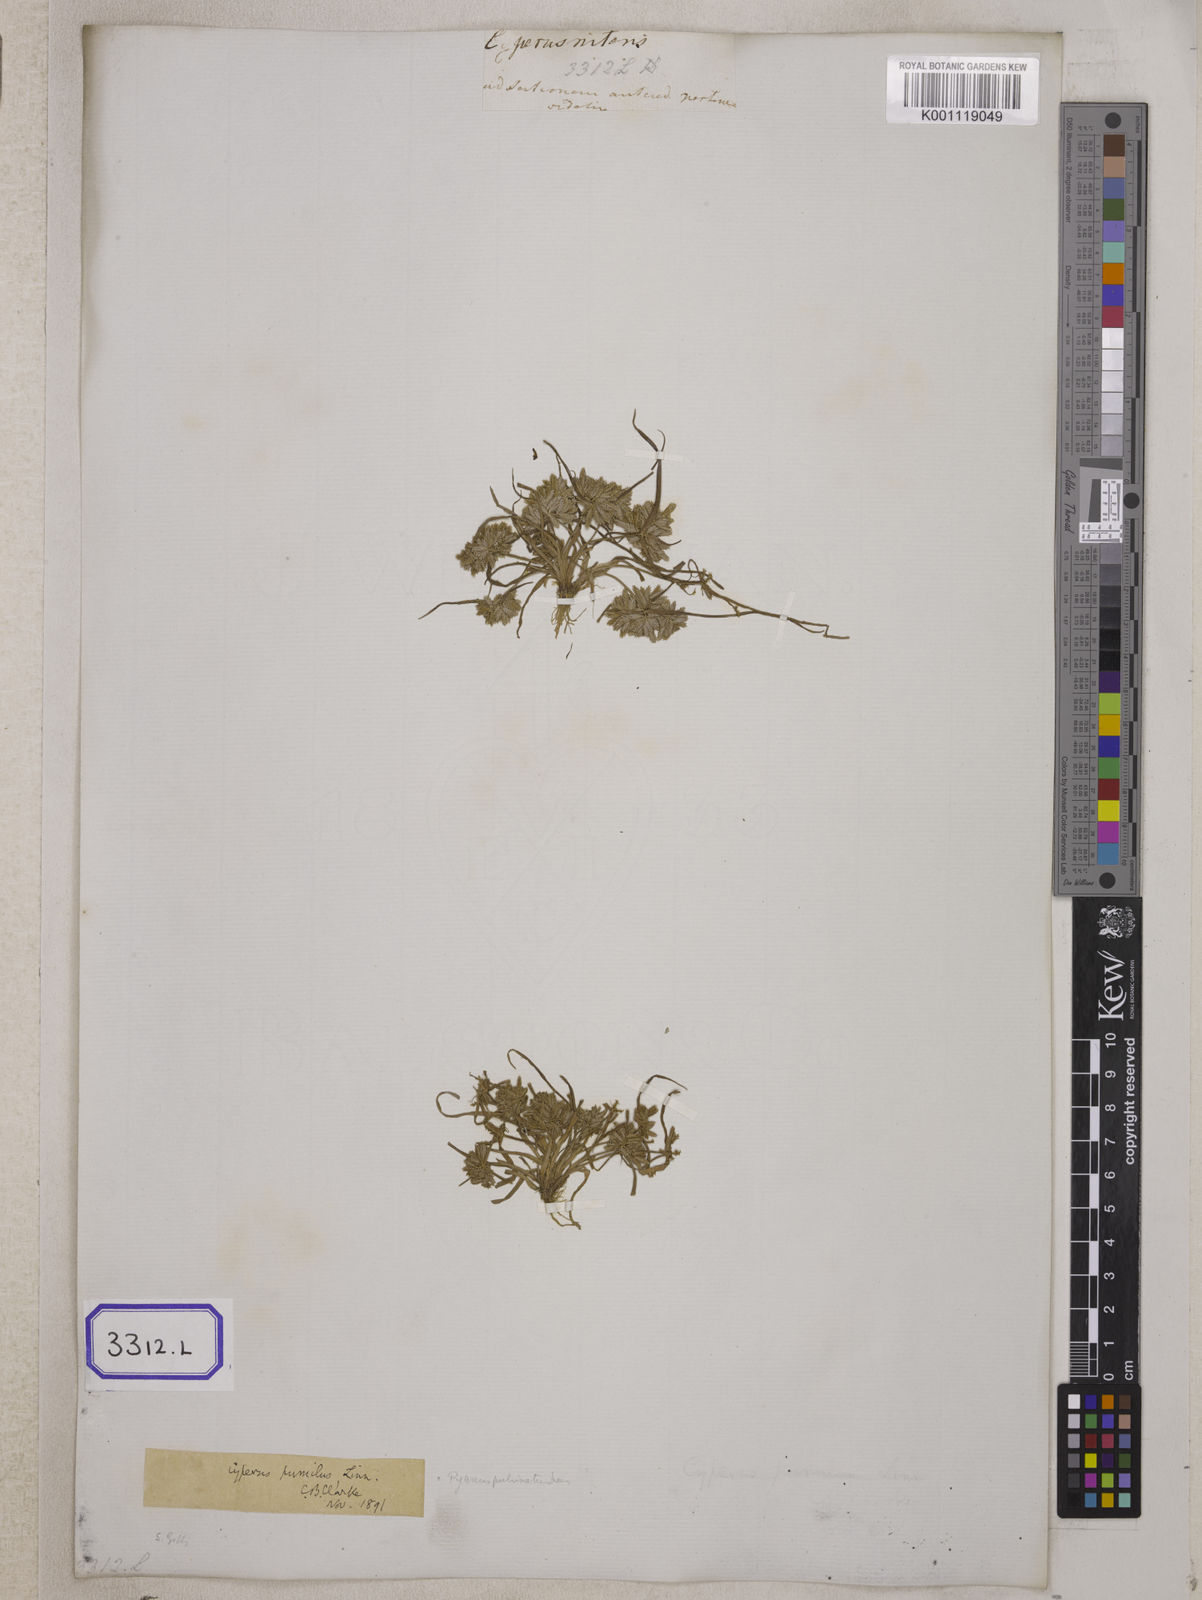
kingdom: Plantae
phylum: Tracheophyta
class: Liliopsida
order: Poales
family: Cyperaceae
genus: Cyperus
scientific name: Cyperus
